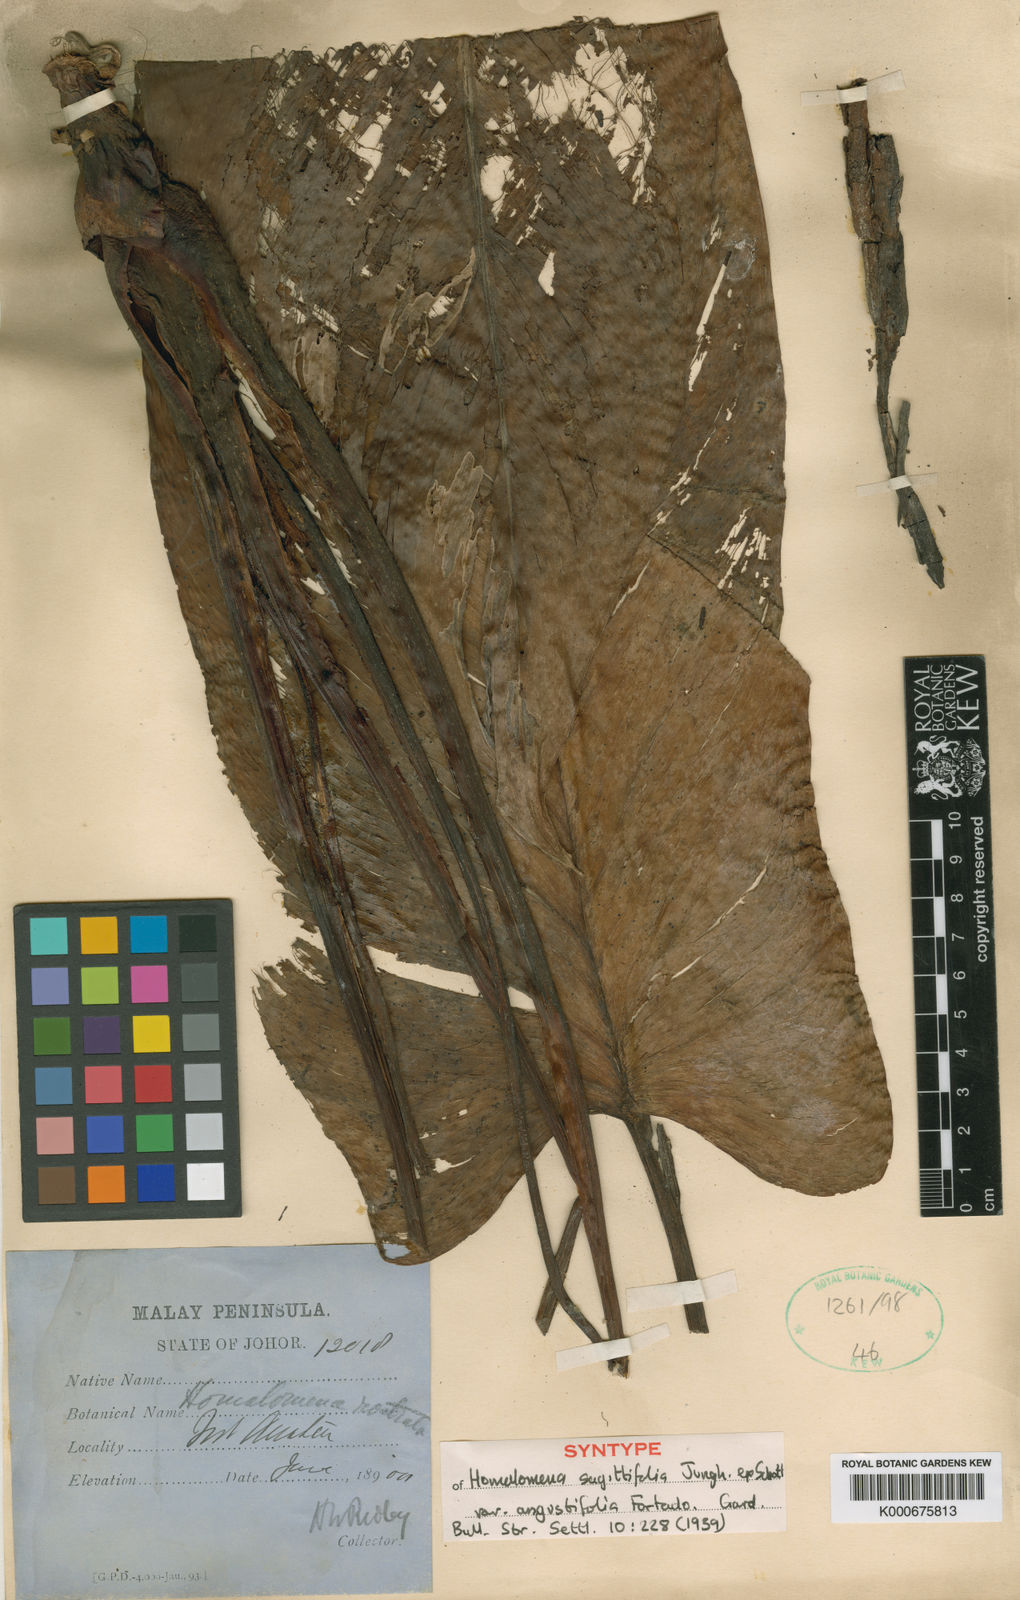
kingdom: Plantae
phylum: Tracheophyta
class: Liliopsida
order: Alismatales
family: Araceae
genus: Homalomena
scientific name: Homalomena rostrata
